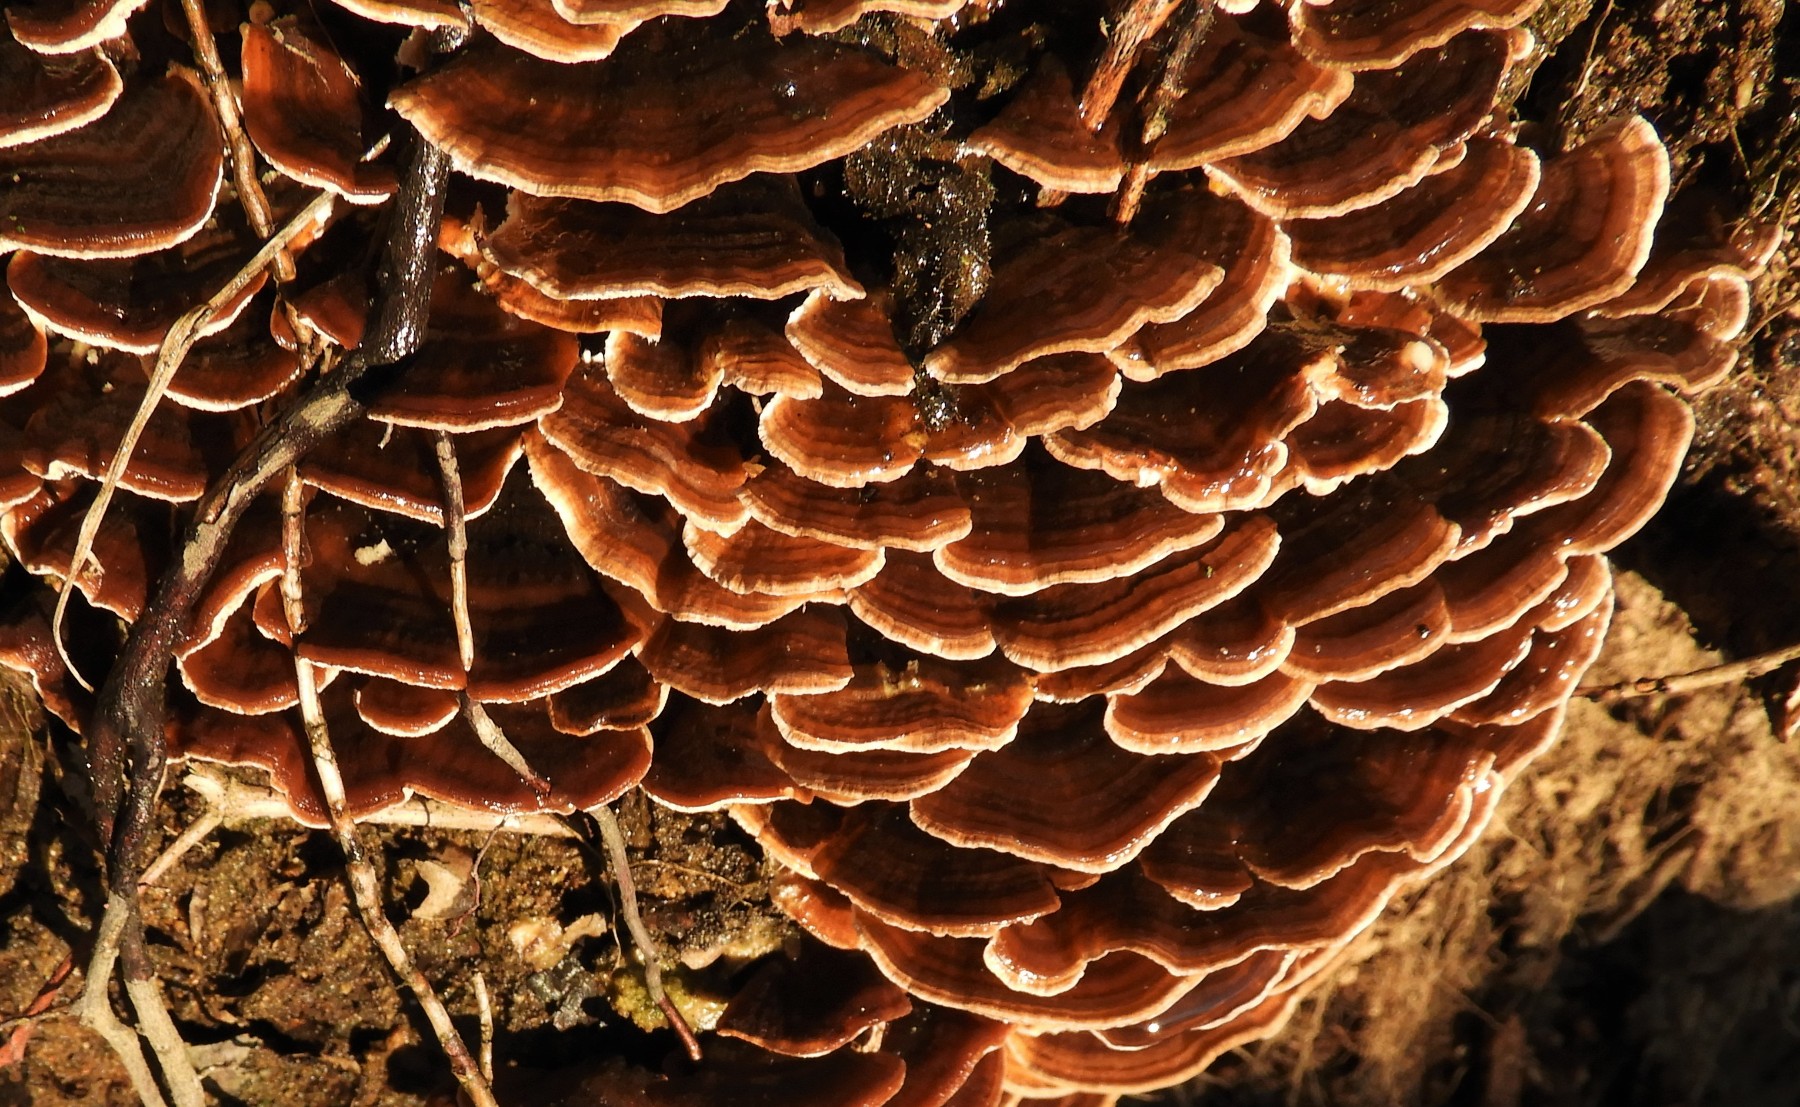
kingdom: Fungi
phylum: Basidiomycota
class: Agaricomycetes
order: Polyporales
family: Polyporaceae
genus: Trametes
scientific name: Trametes versicolor
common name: broget læderporesvamp
